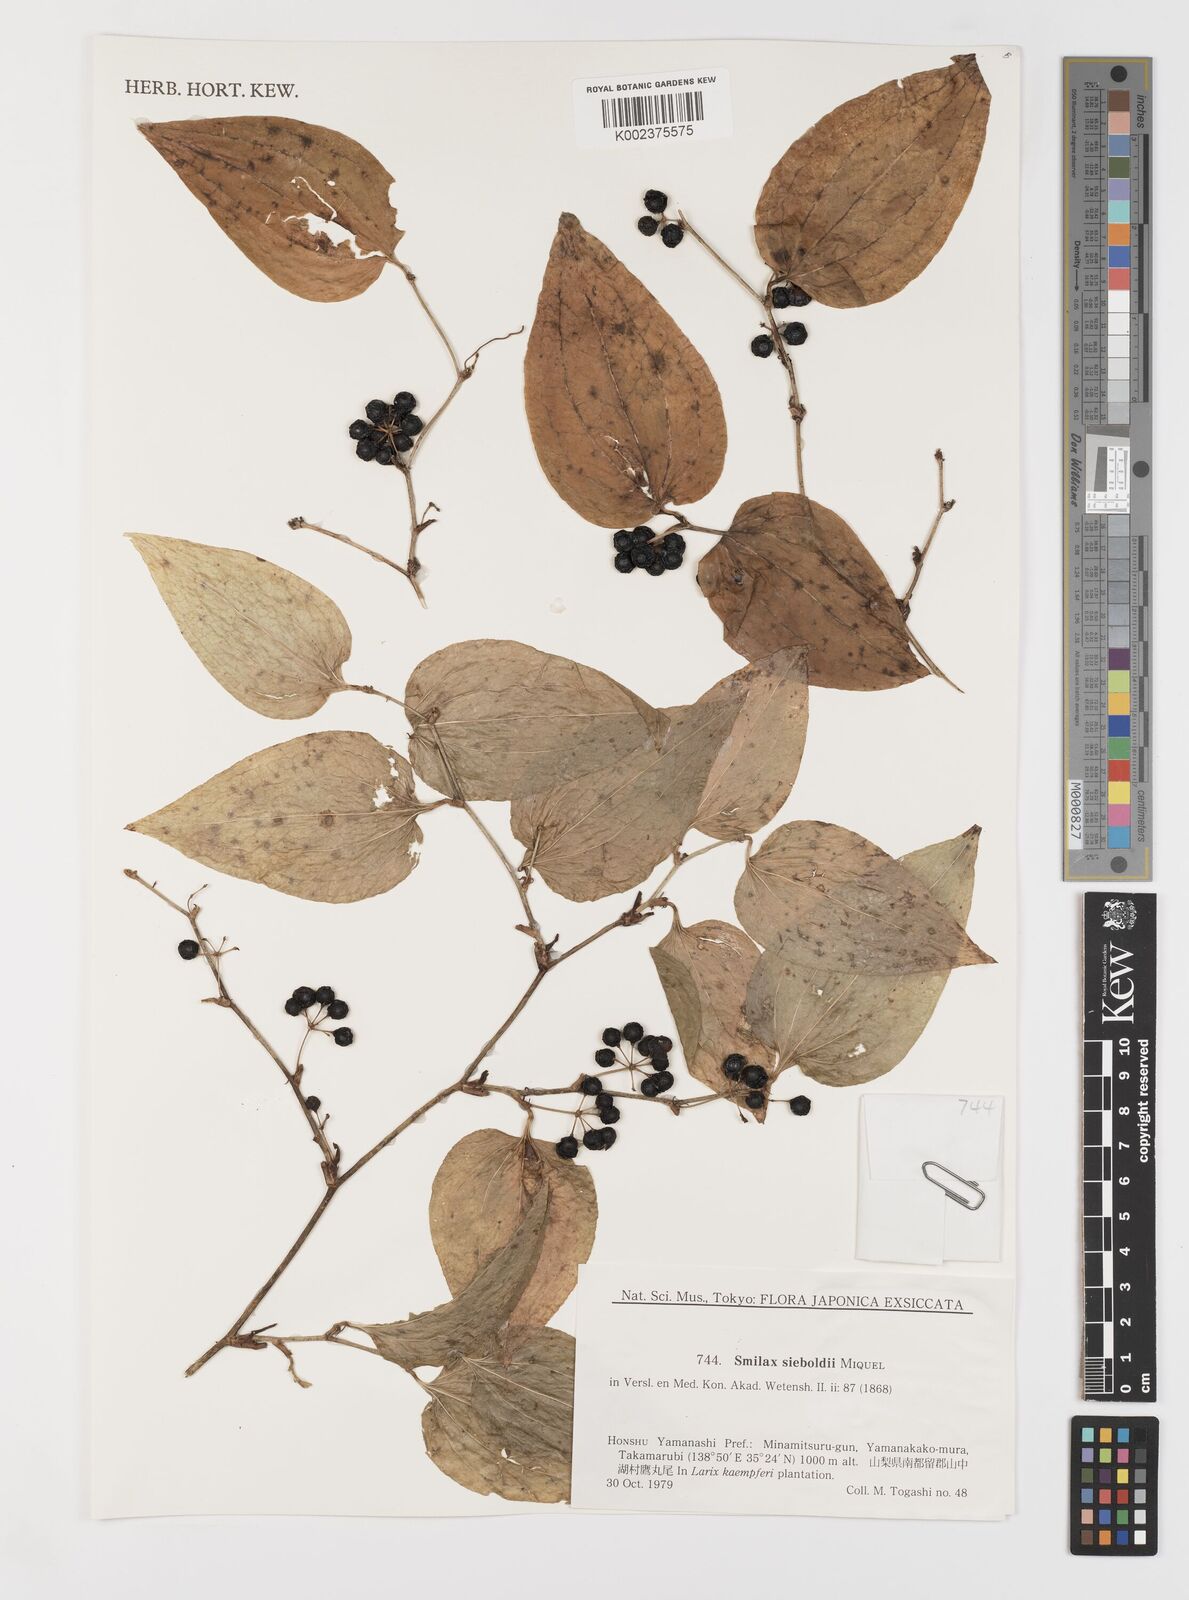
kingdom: Plantae
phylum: Tracheophyta
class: Liliopsida
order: Liliales
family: Smilacaceae
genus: Smilax
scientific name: Smilax sieboldii
